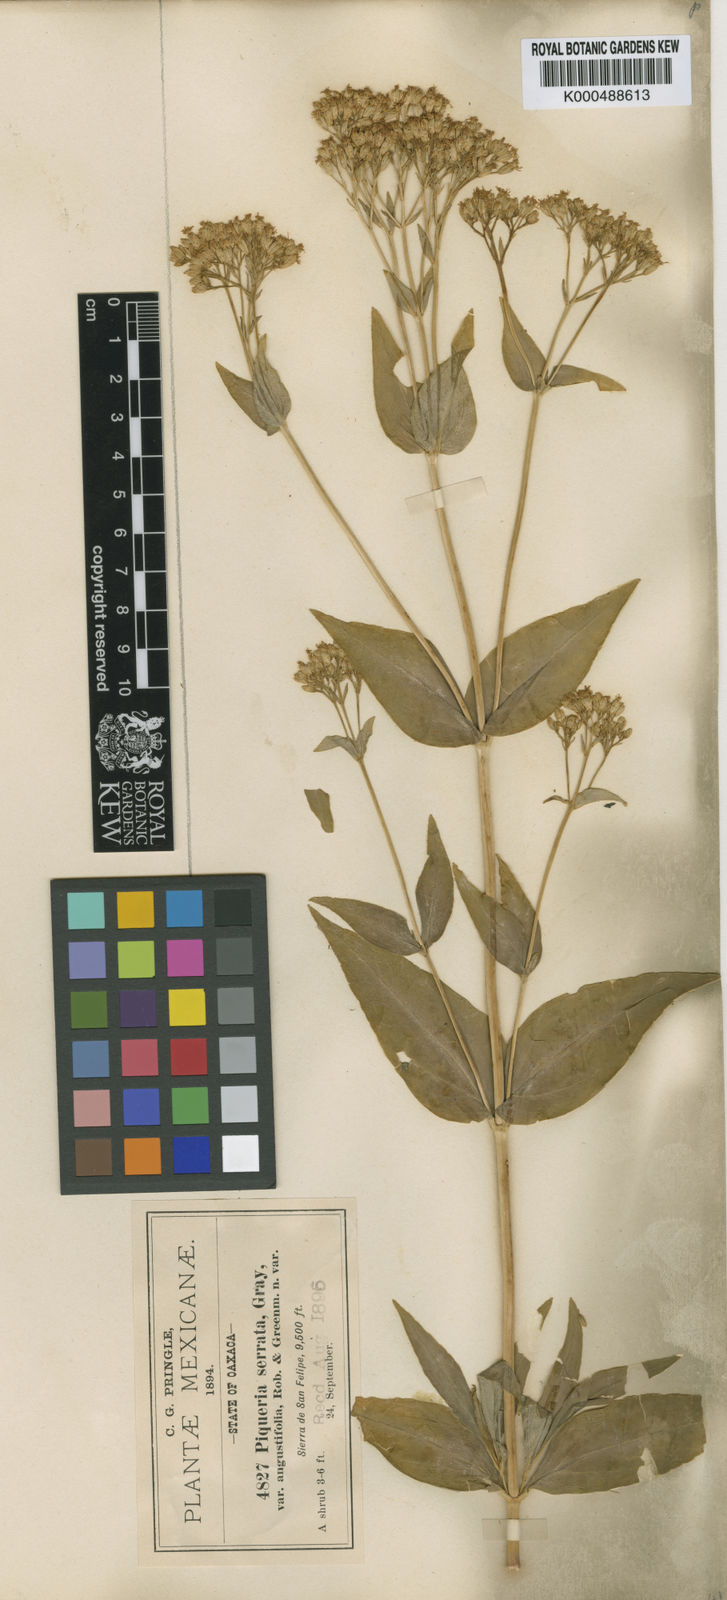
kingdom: Plantae
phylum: Tracheophyta
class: Magnoliopsida
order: Asterales
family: Asteraceae
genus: Piqueria
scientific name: Piqueria serrata
